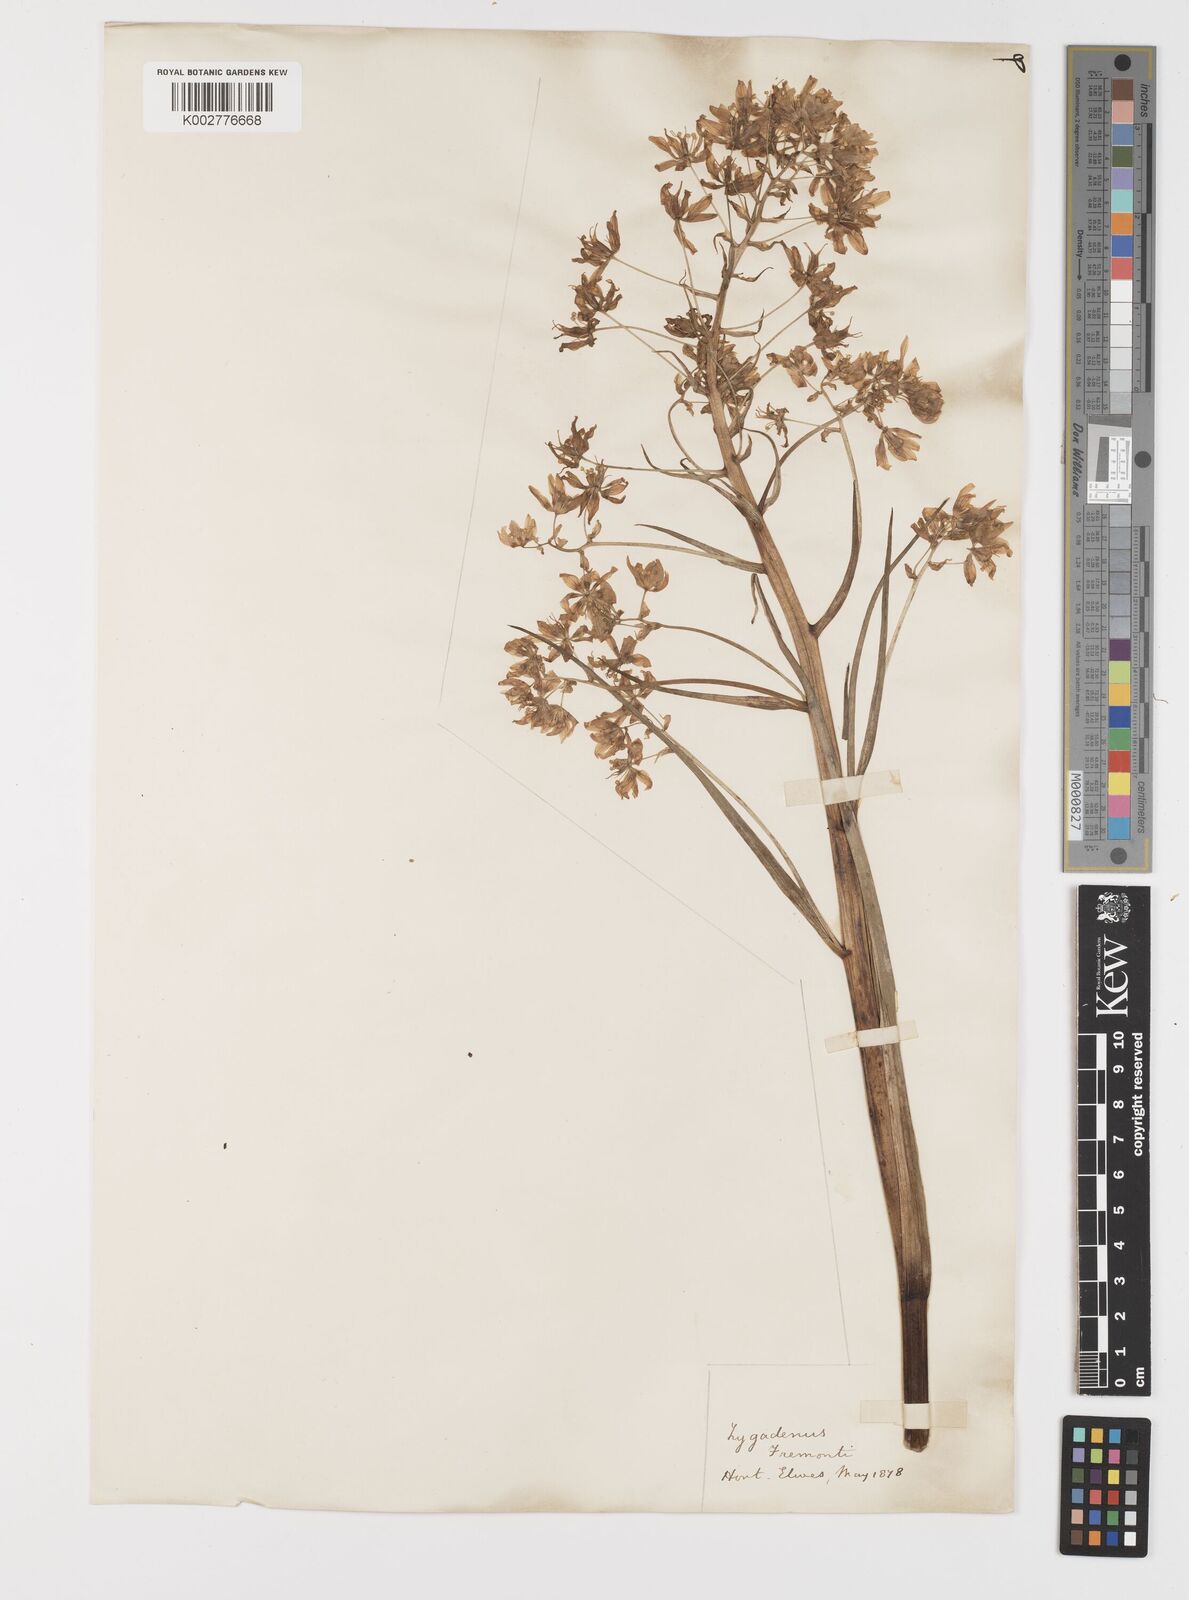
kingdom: Plantae
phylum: Tracheophyta
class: Liliopsida
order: Liliales
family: Melanthiaceae
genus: Toxicoscordion
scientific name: Toxicoscordion fremontii
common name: Fremont's death camas
